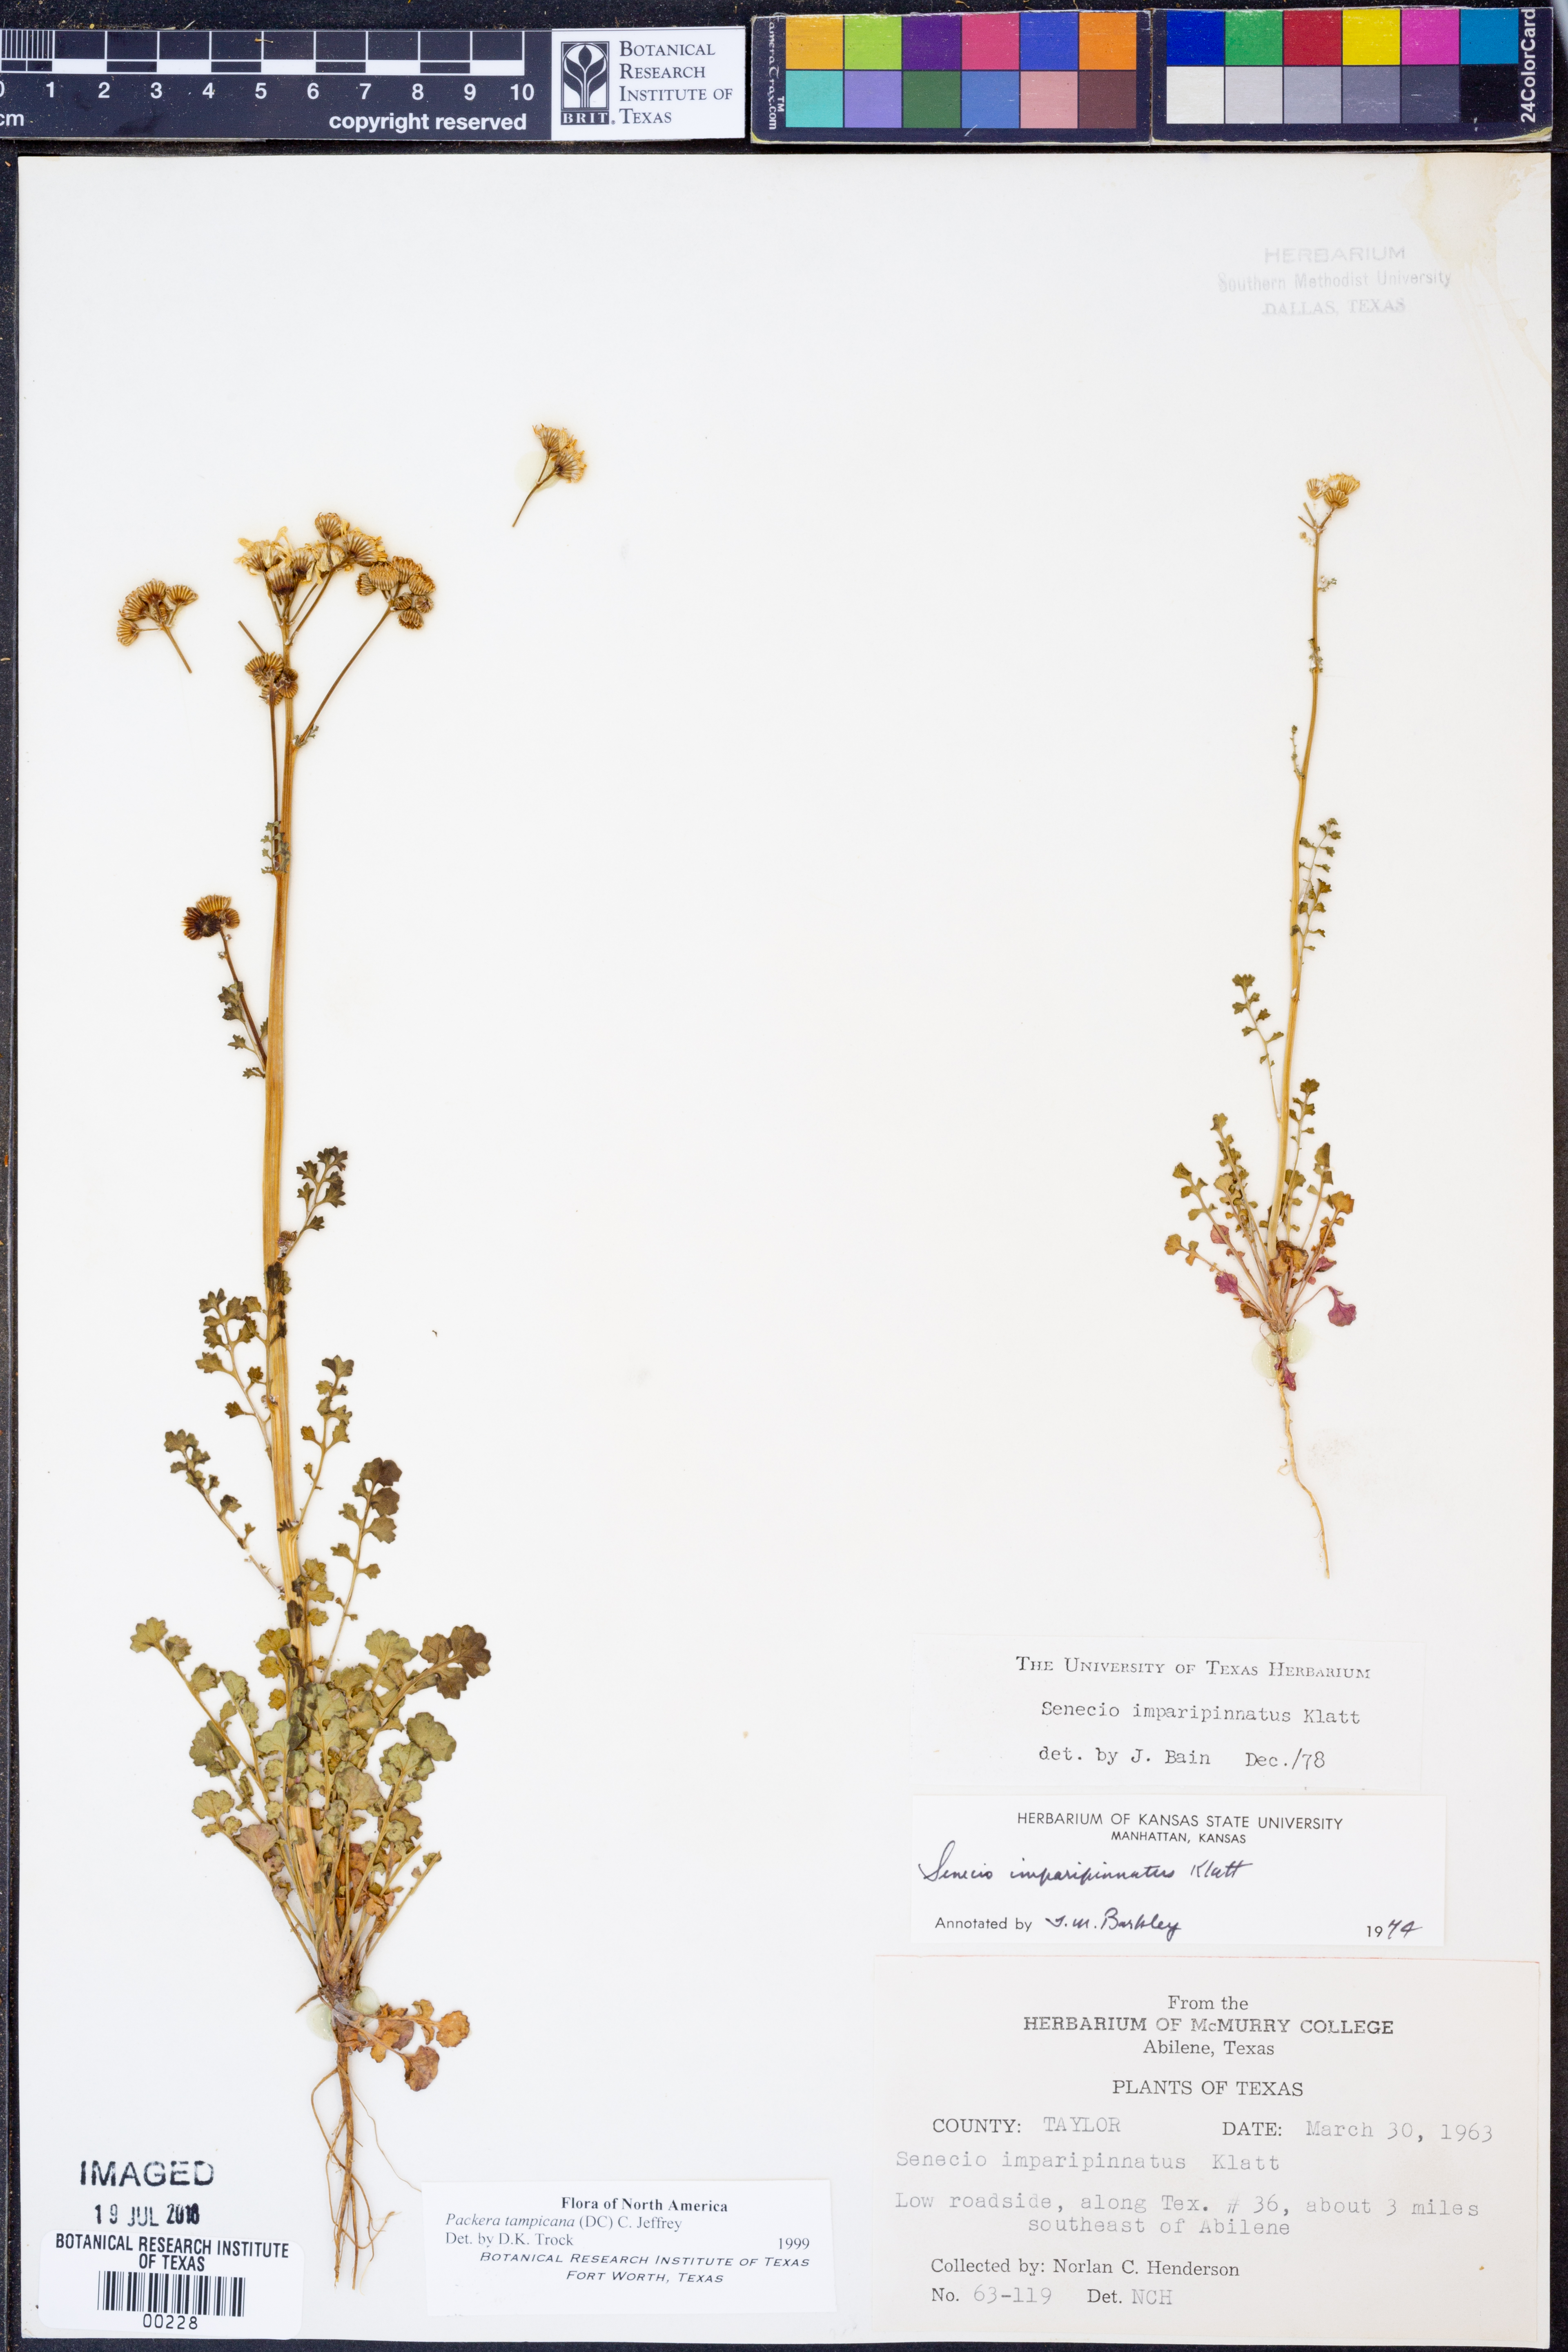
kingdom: Plantae
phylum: Tracheophyta
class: Magnoliopsida
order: Asterales
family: Asteraceae
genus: Packera
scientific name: Packera tampicana
